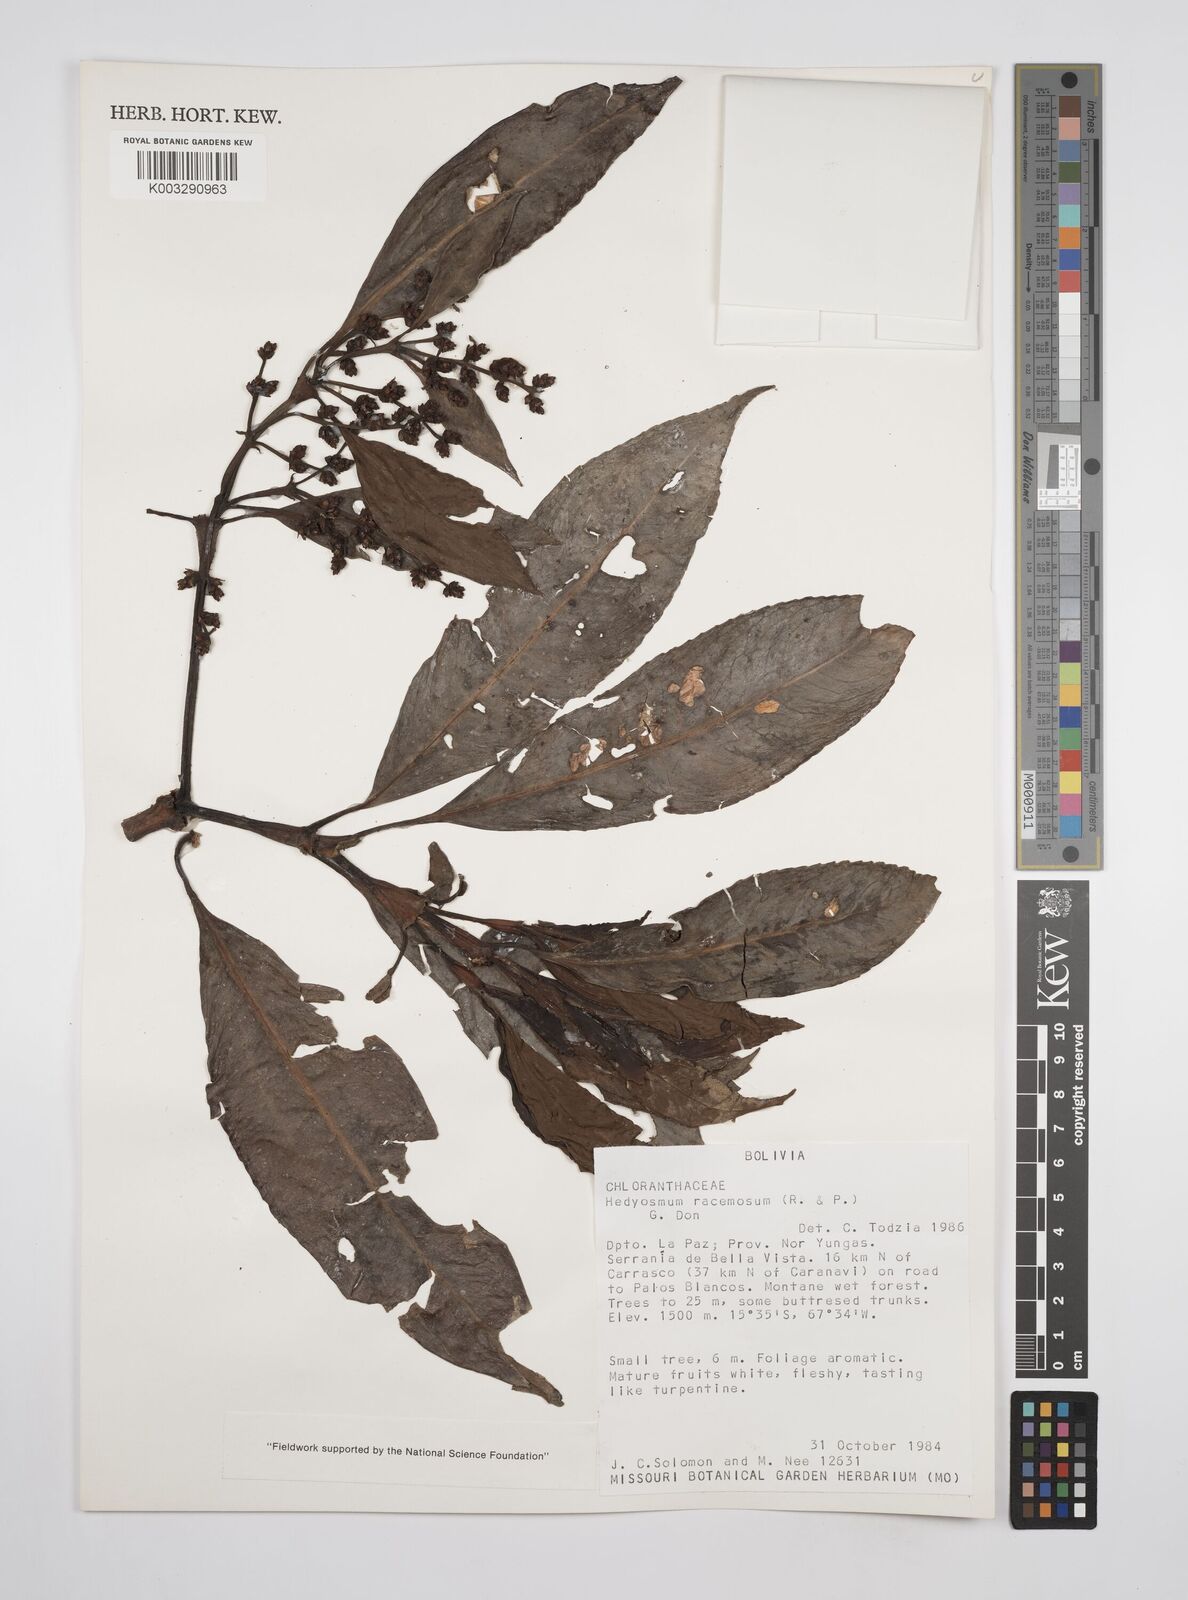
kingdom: Plantae
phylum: Tracheophyta
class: Magnoliopsida
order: Chloranthales
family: Chloranthaceae
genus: Hedyosmum
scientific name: Hedyosmum racemosum
